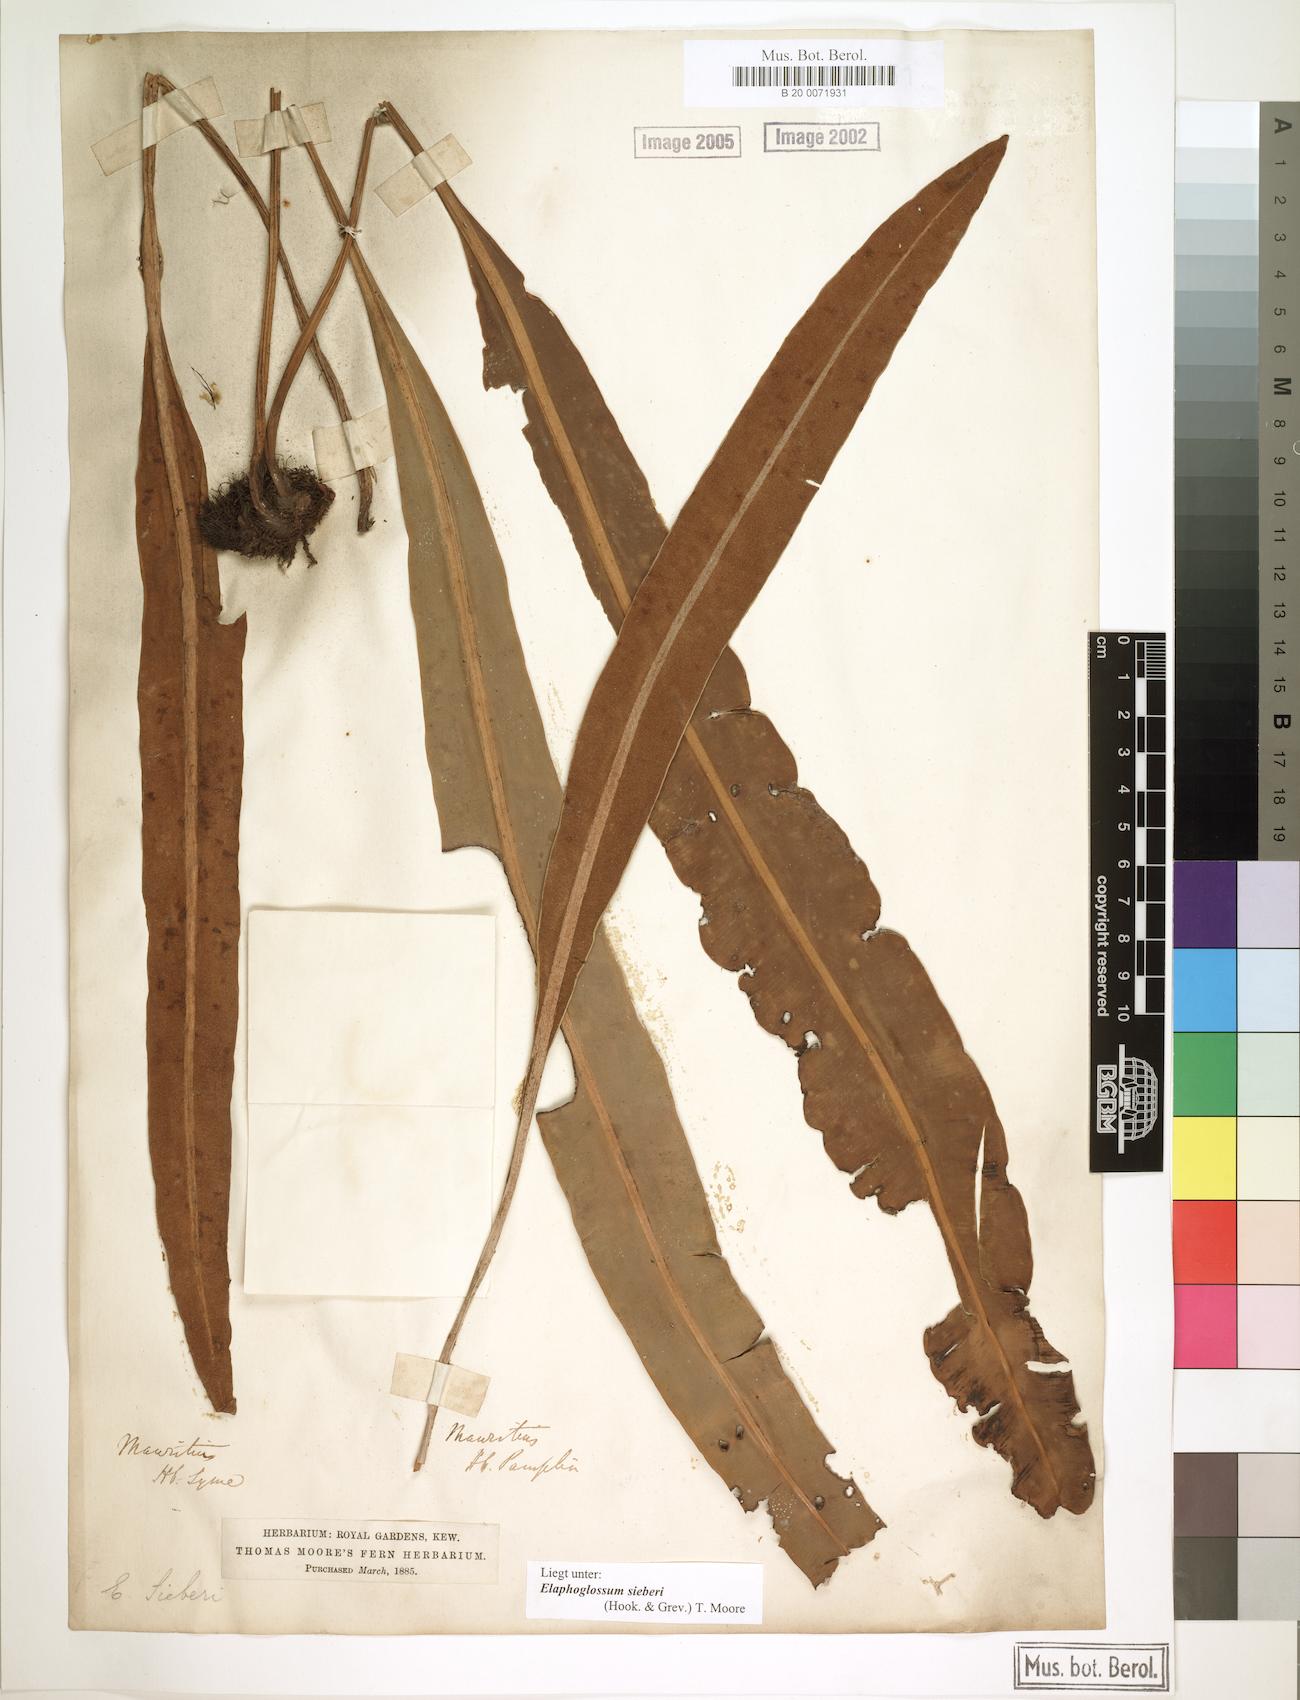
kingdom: Plantae
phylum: Tracheophyta
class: Polypodiopsida
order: Polypodiales
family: Dryopteridaceae
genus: Elaphoglossum
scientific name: Elaphoglossum sieberi
